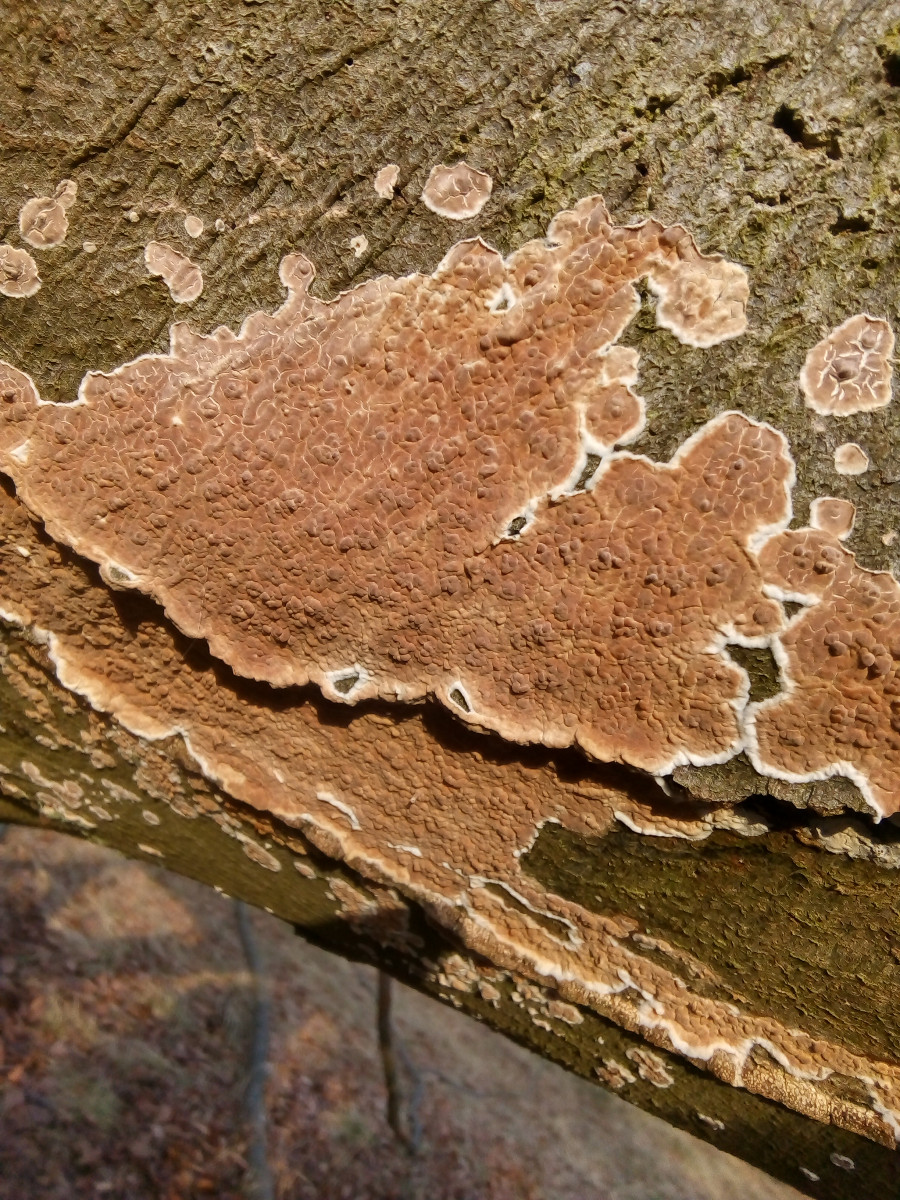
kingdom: Fungi
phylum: Basidiomycota
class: Agaricomycetes
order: Agaricales
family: Physalacriaceae
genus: Cylindrobasidium
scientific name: Cylindrobasidium evolvens
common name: sprækkehinde
